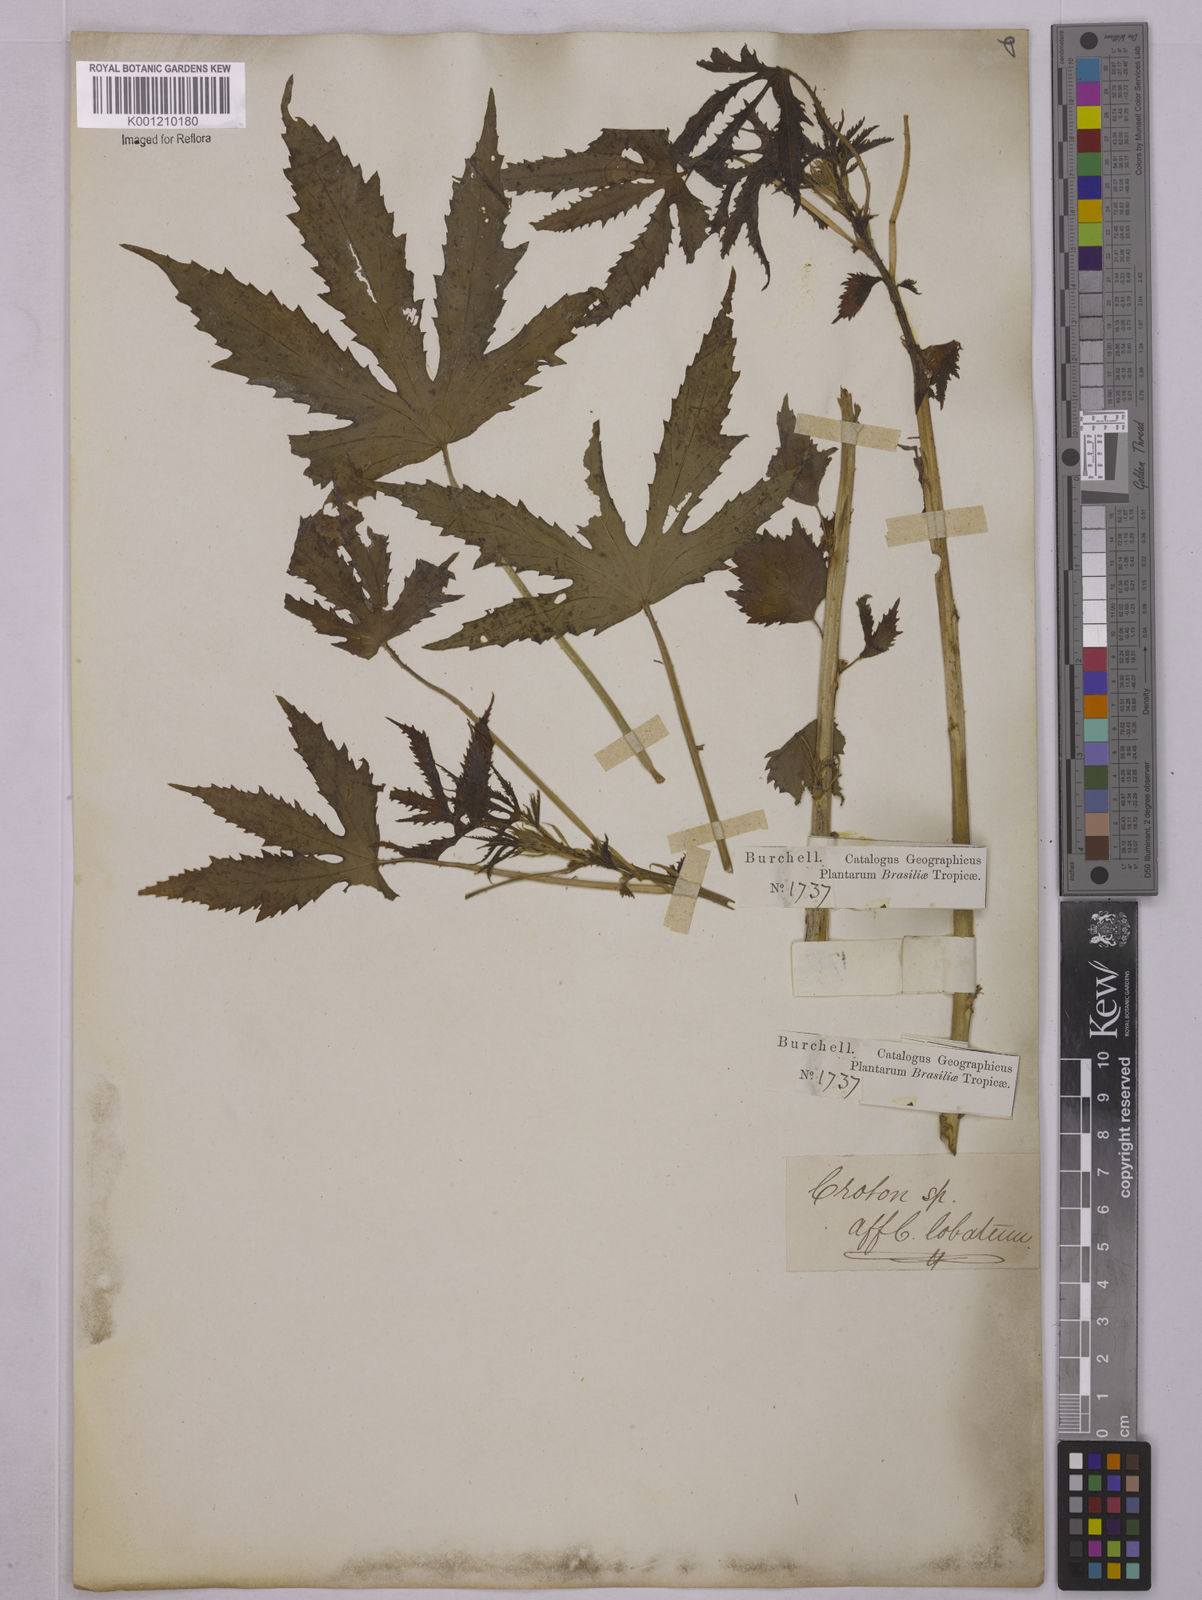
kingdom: Plantae
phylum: Tracheophyta
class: Magnoliopsida
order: Malpighiales
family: Euphorbiaceae
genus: Astraea
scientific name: Astraea lobata
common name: Lobed croton
